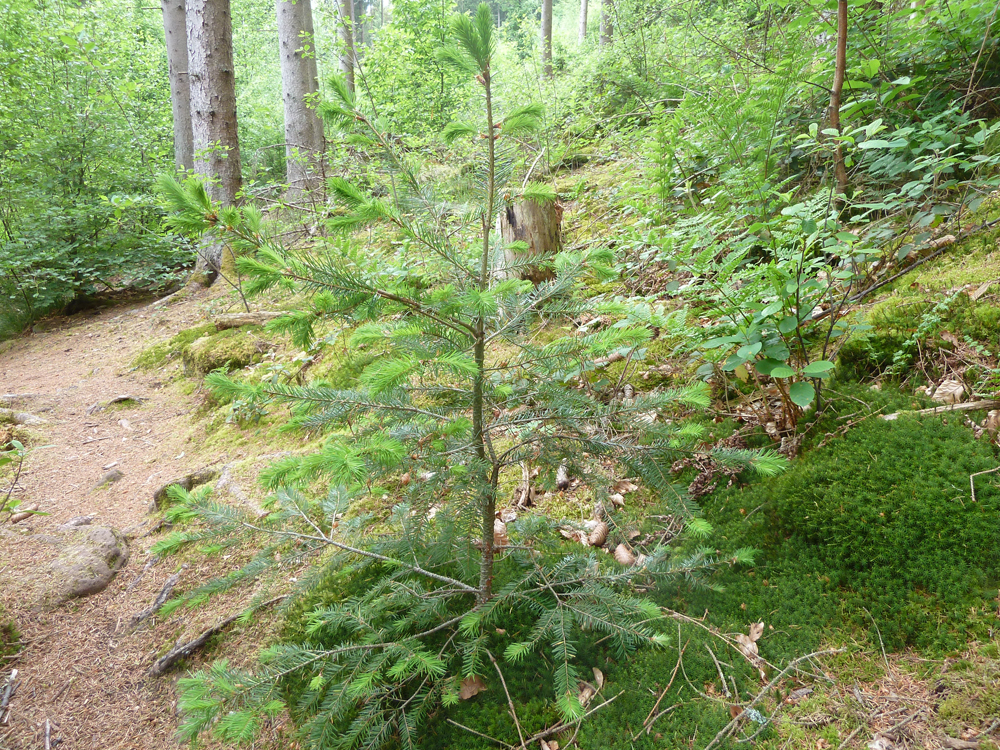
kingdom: Plantae
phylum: Tracheophyta
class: Pinopsida
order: Pinales
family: Pinaceae
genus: Pseudotsuga
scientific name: Pseudotsuga menziesii
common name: Douglas fir
